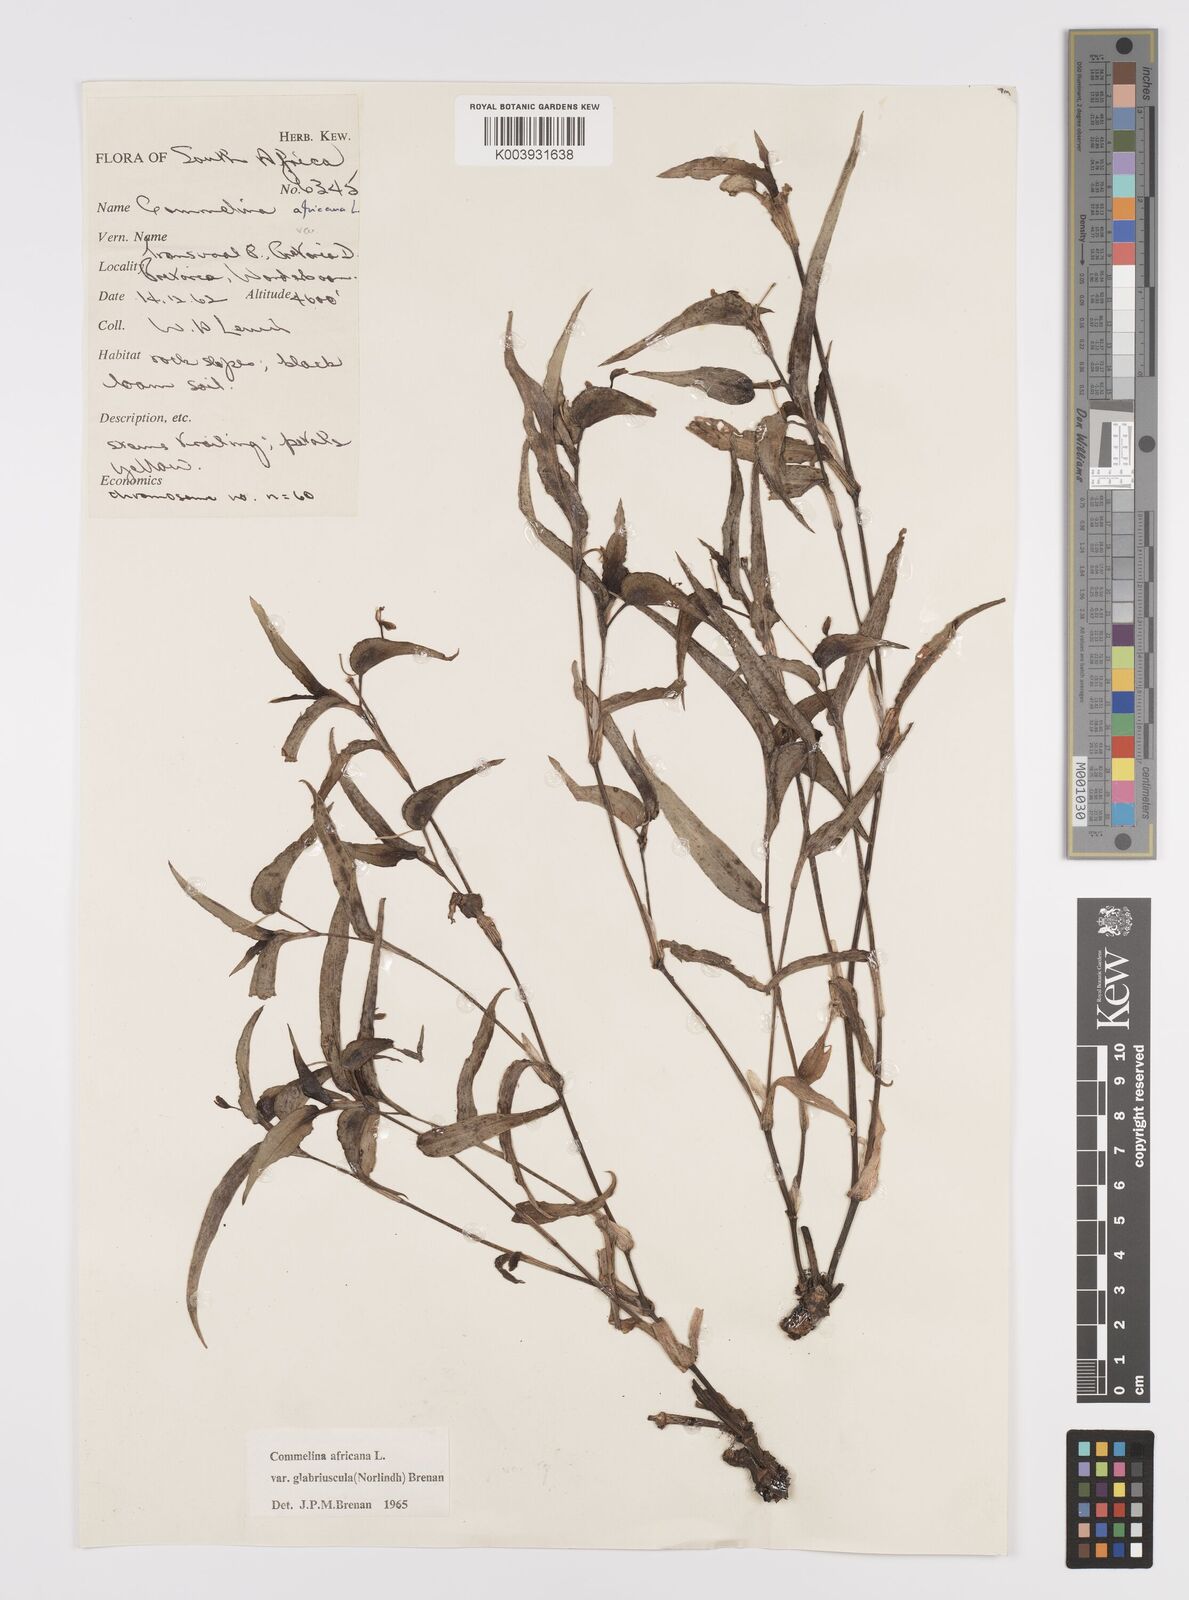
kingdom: Plantae
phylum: Tracheophyta
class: Liliopsida
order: Commelinales
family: Commelinaceae
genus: Commelina
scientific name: Commelina africana
